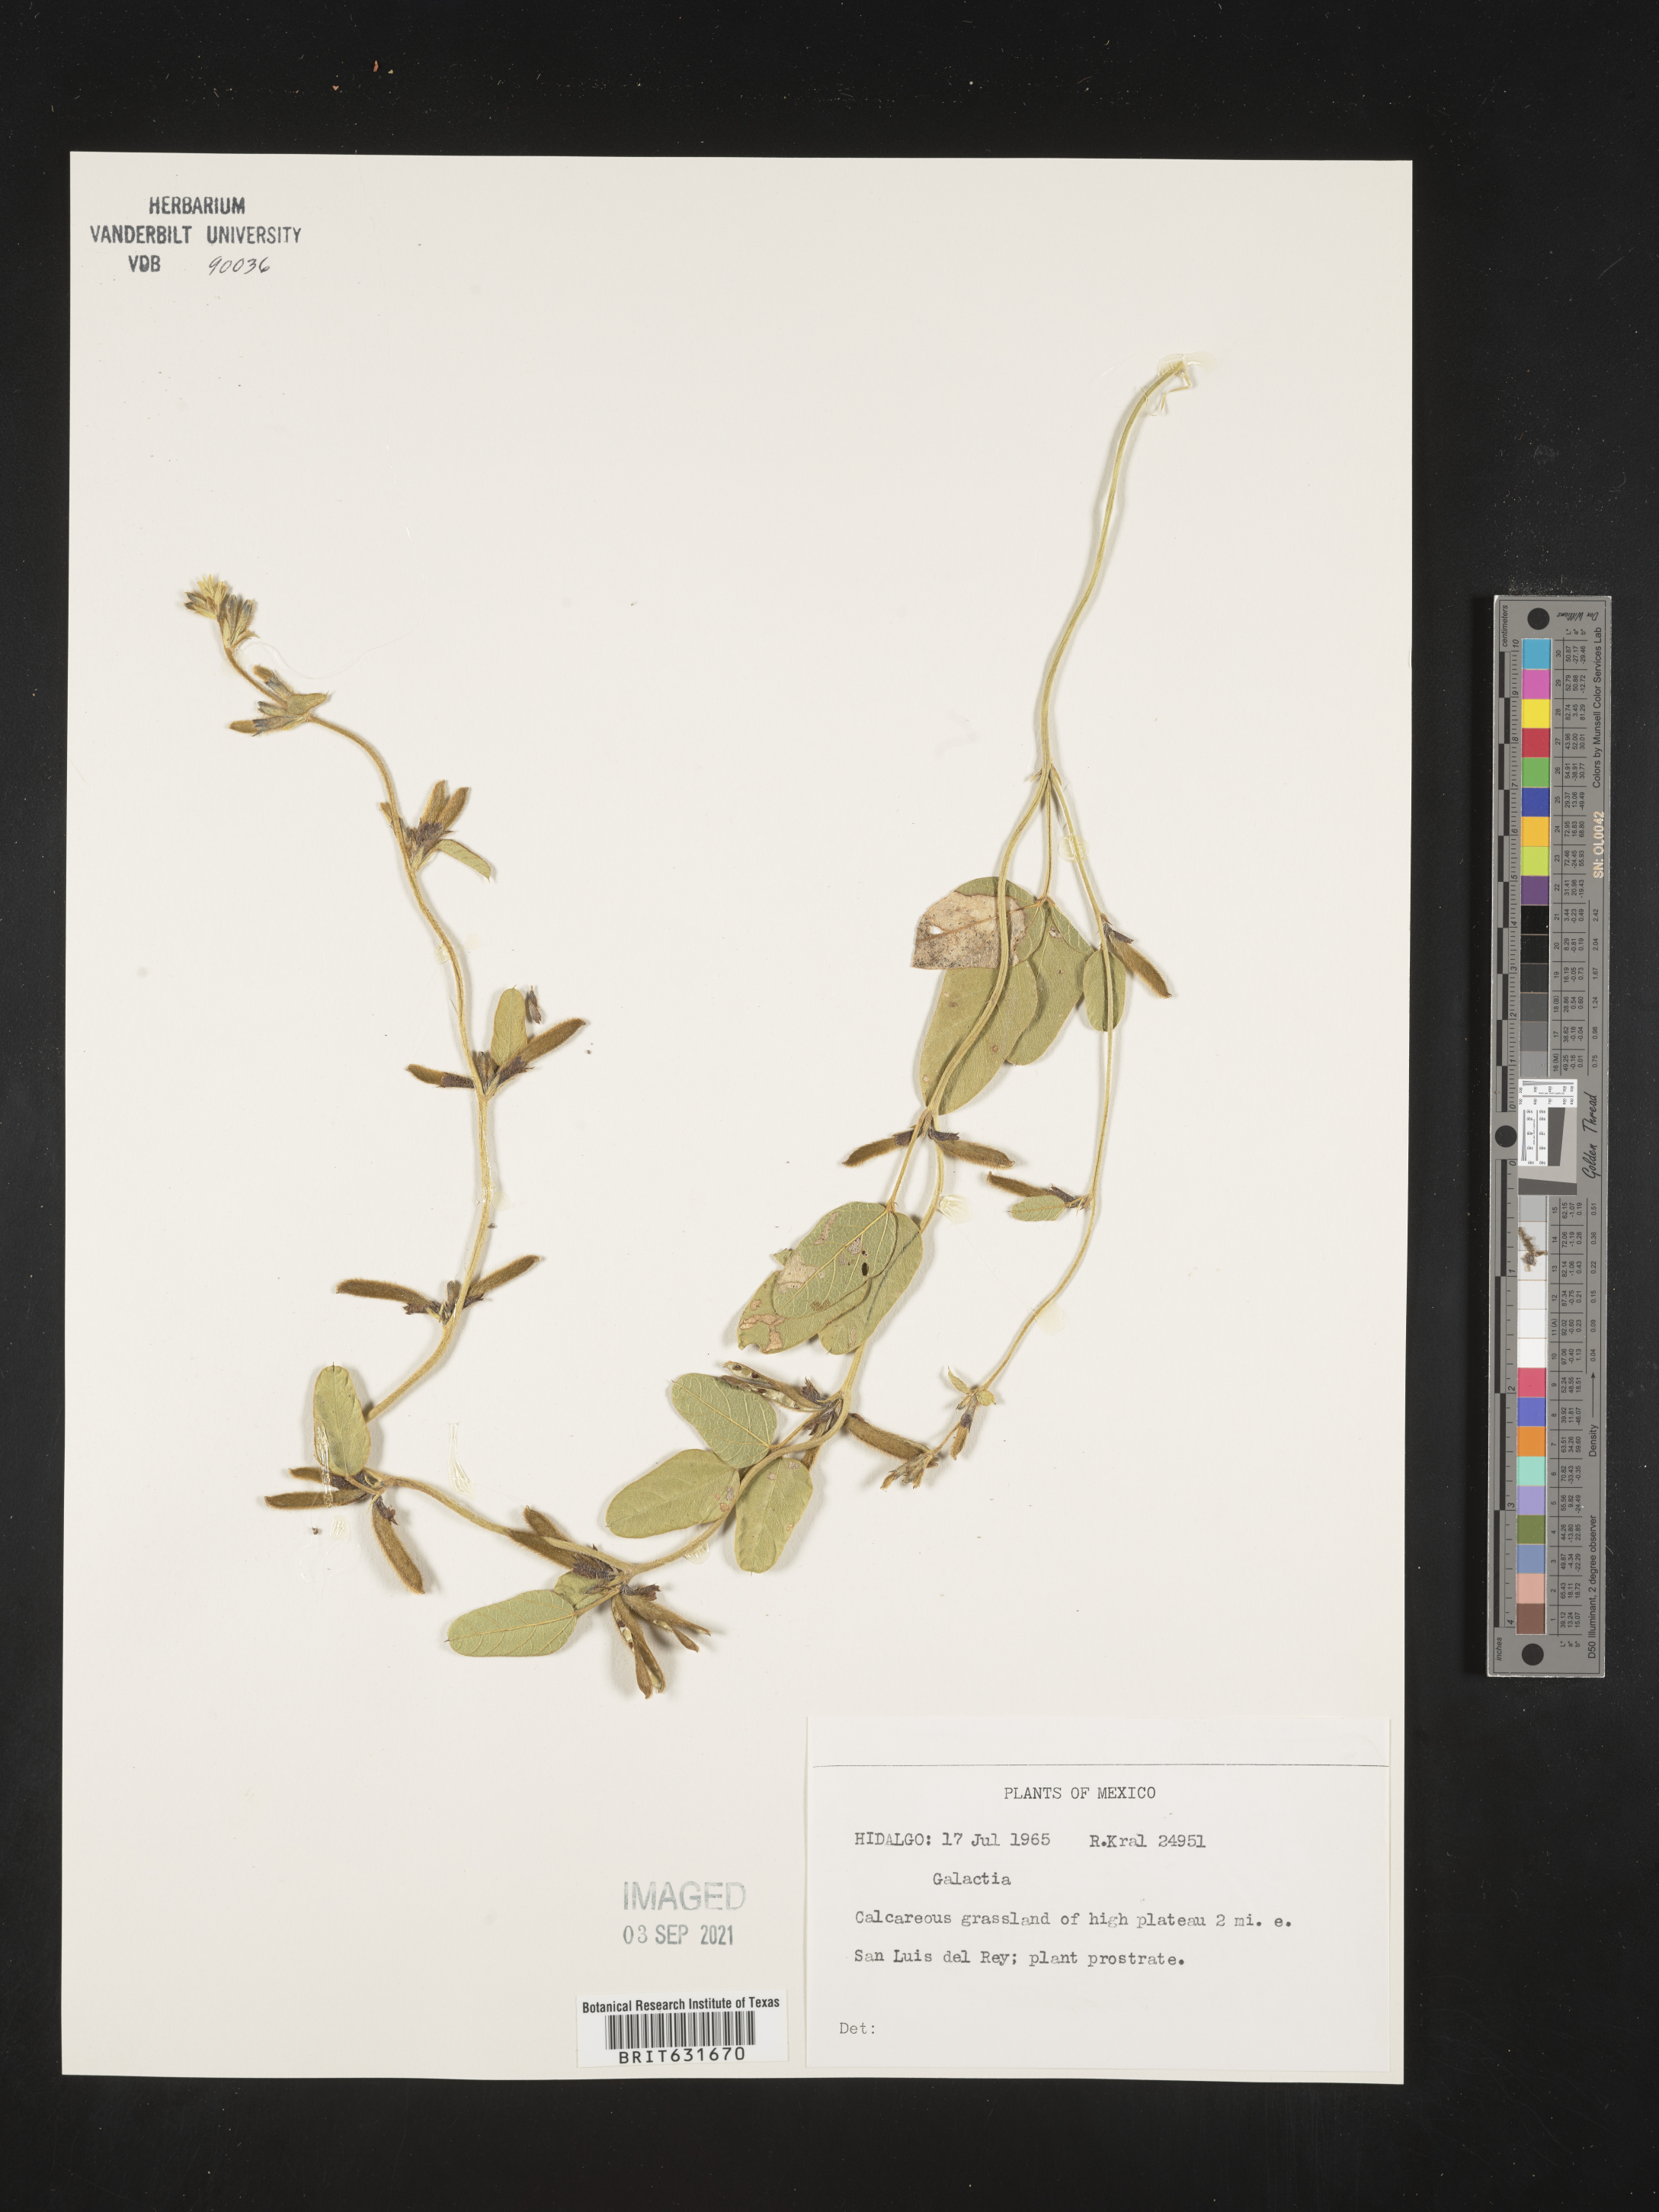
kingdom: Plantae
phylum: Tracheophyta
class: Magnoliopsida
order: Fabales
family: Fabaceae
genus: Galactia
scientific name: Galactia
